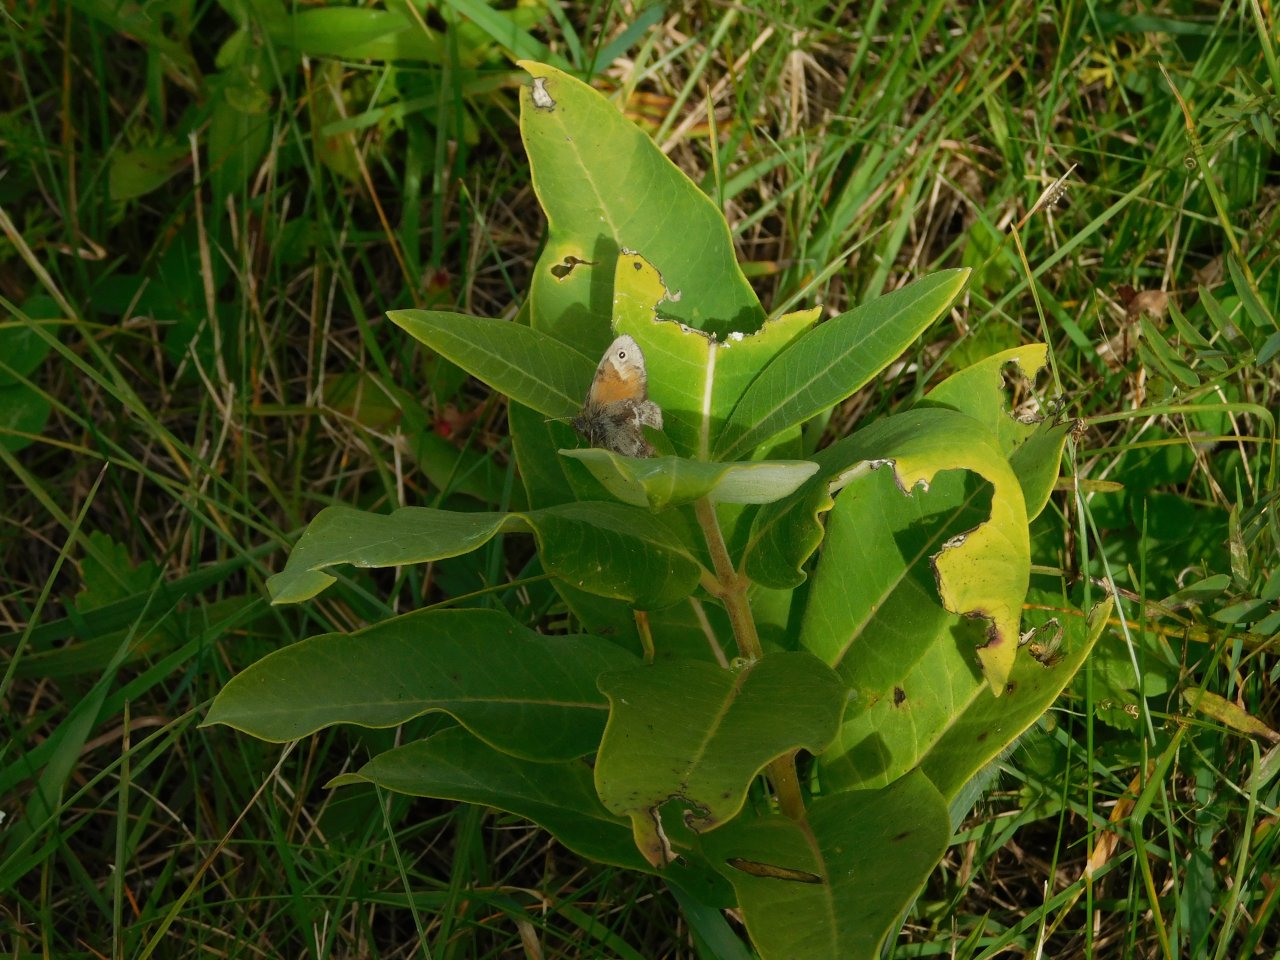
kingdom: Animalia
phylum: Arthropoda
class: Insecta
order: Lepidoptera
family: Nymphalidae
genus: Coenonympha
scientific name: Coenonympha tullia
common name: Large Heath
